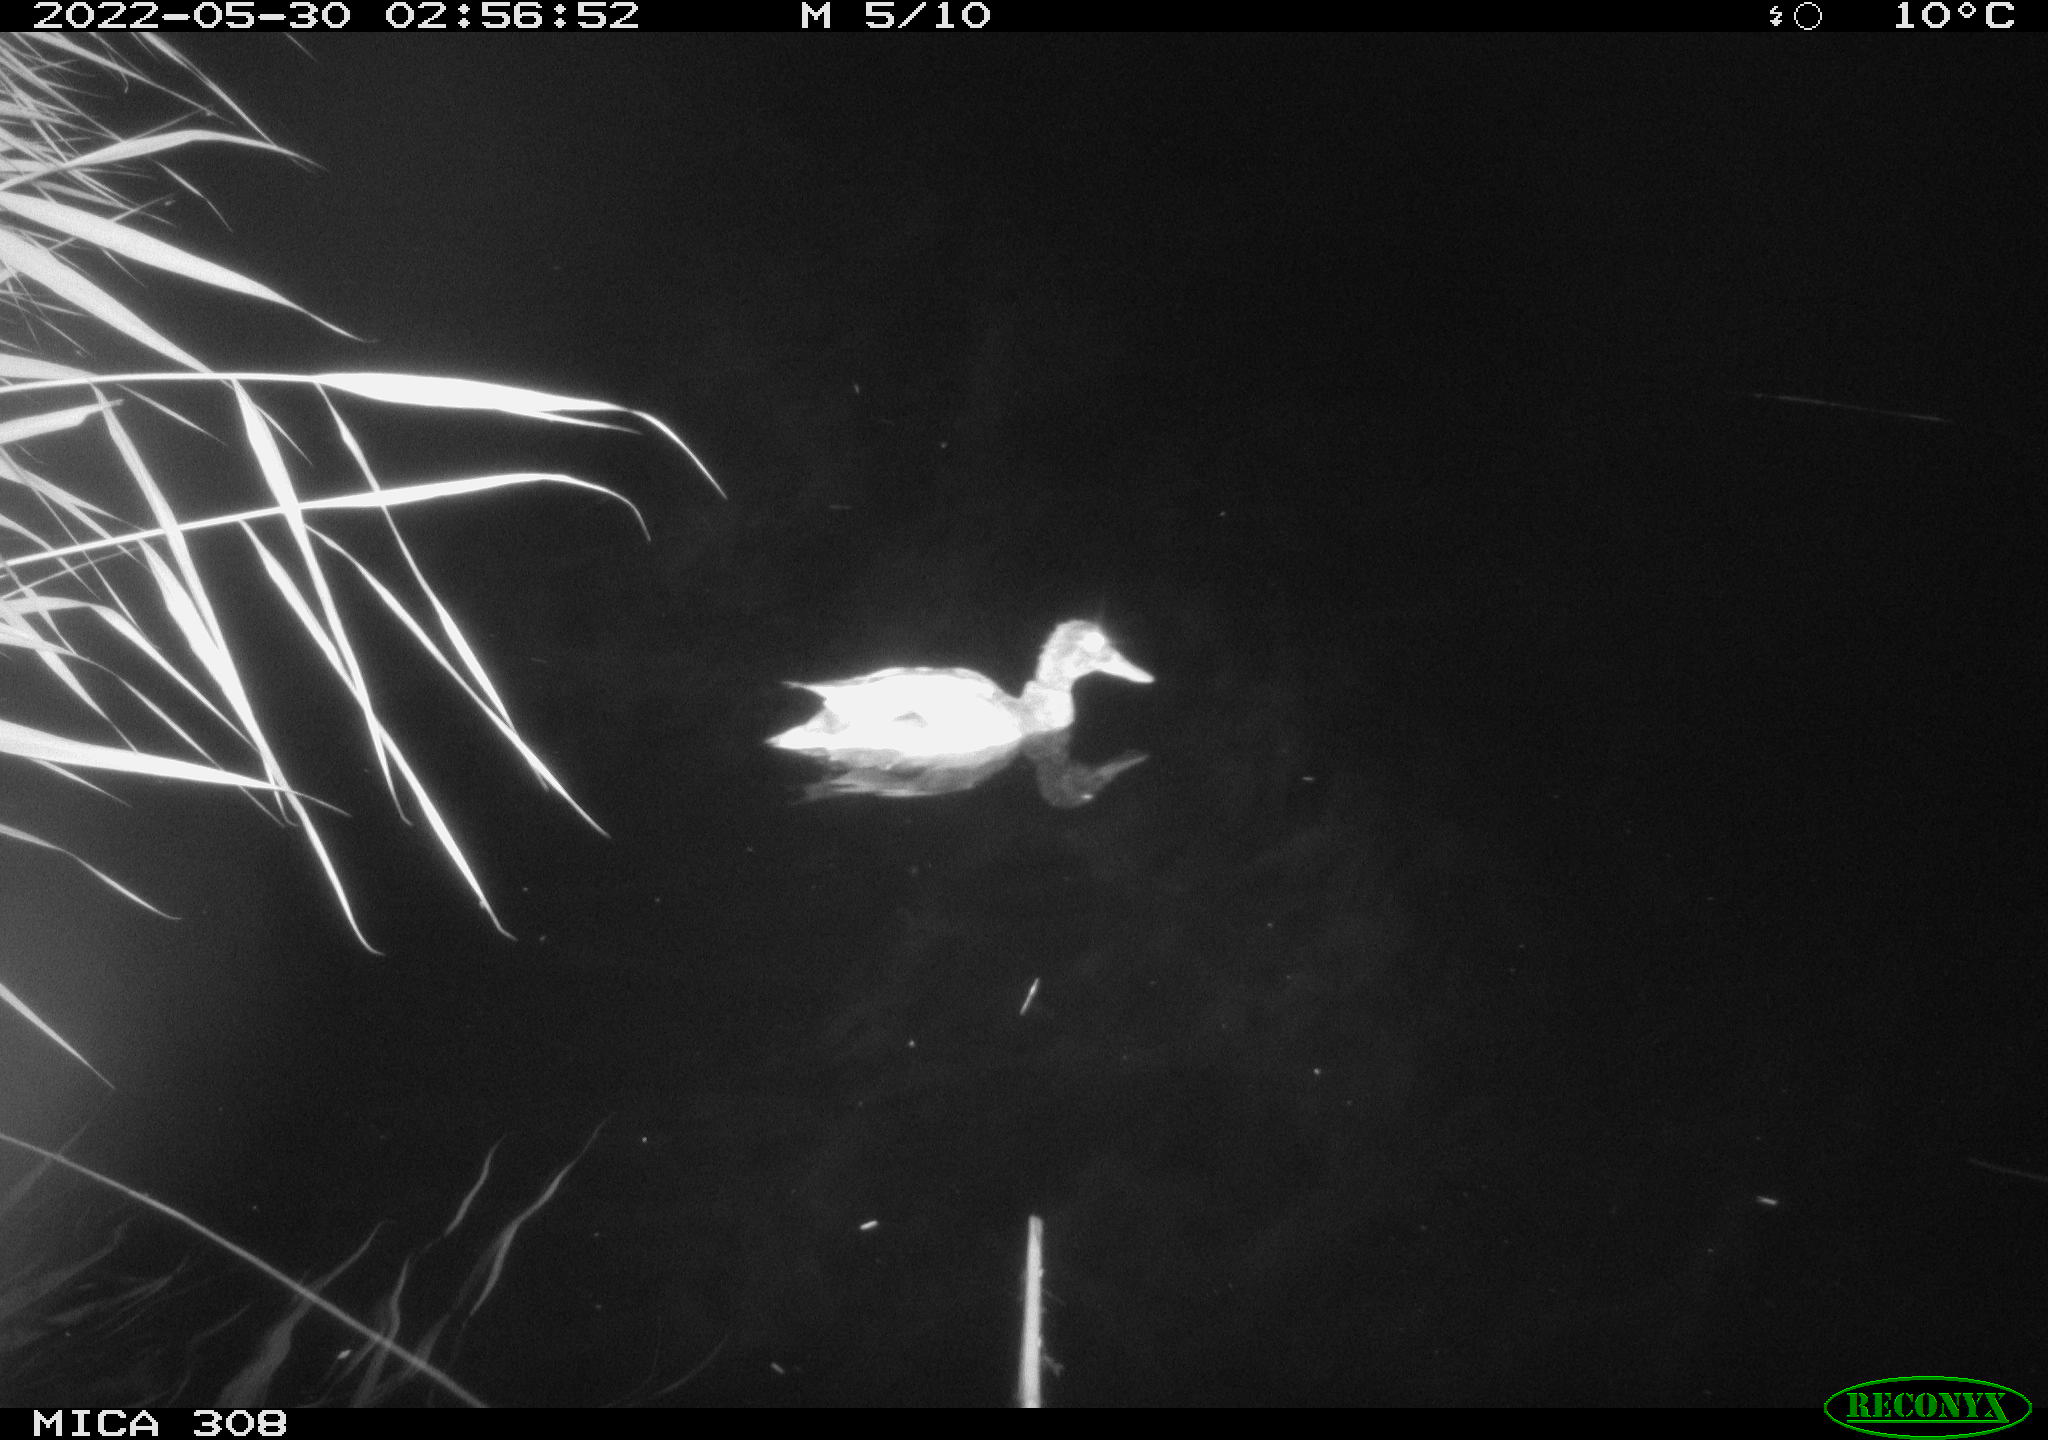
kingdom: Animalia
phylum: Chordata
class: Aves
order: Anseriformes
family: Anatidae
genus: Anas
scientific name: Anas platyrhynchos
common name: Mallard
